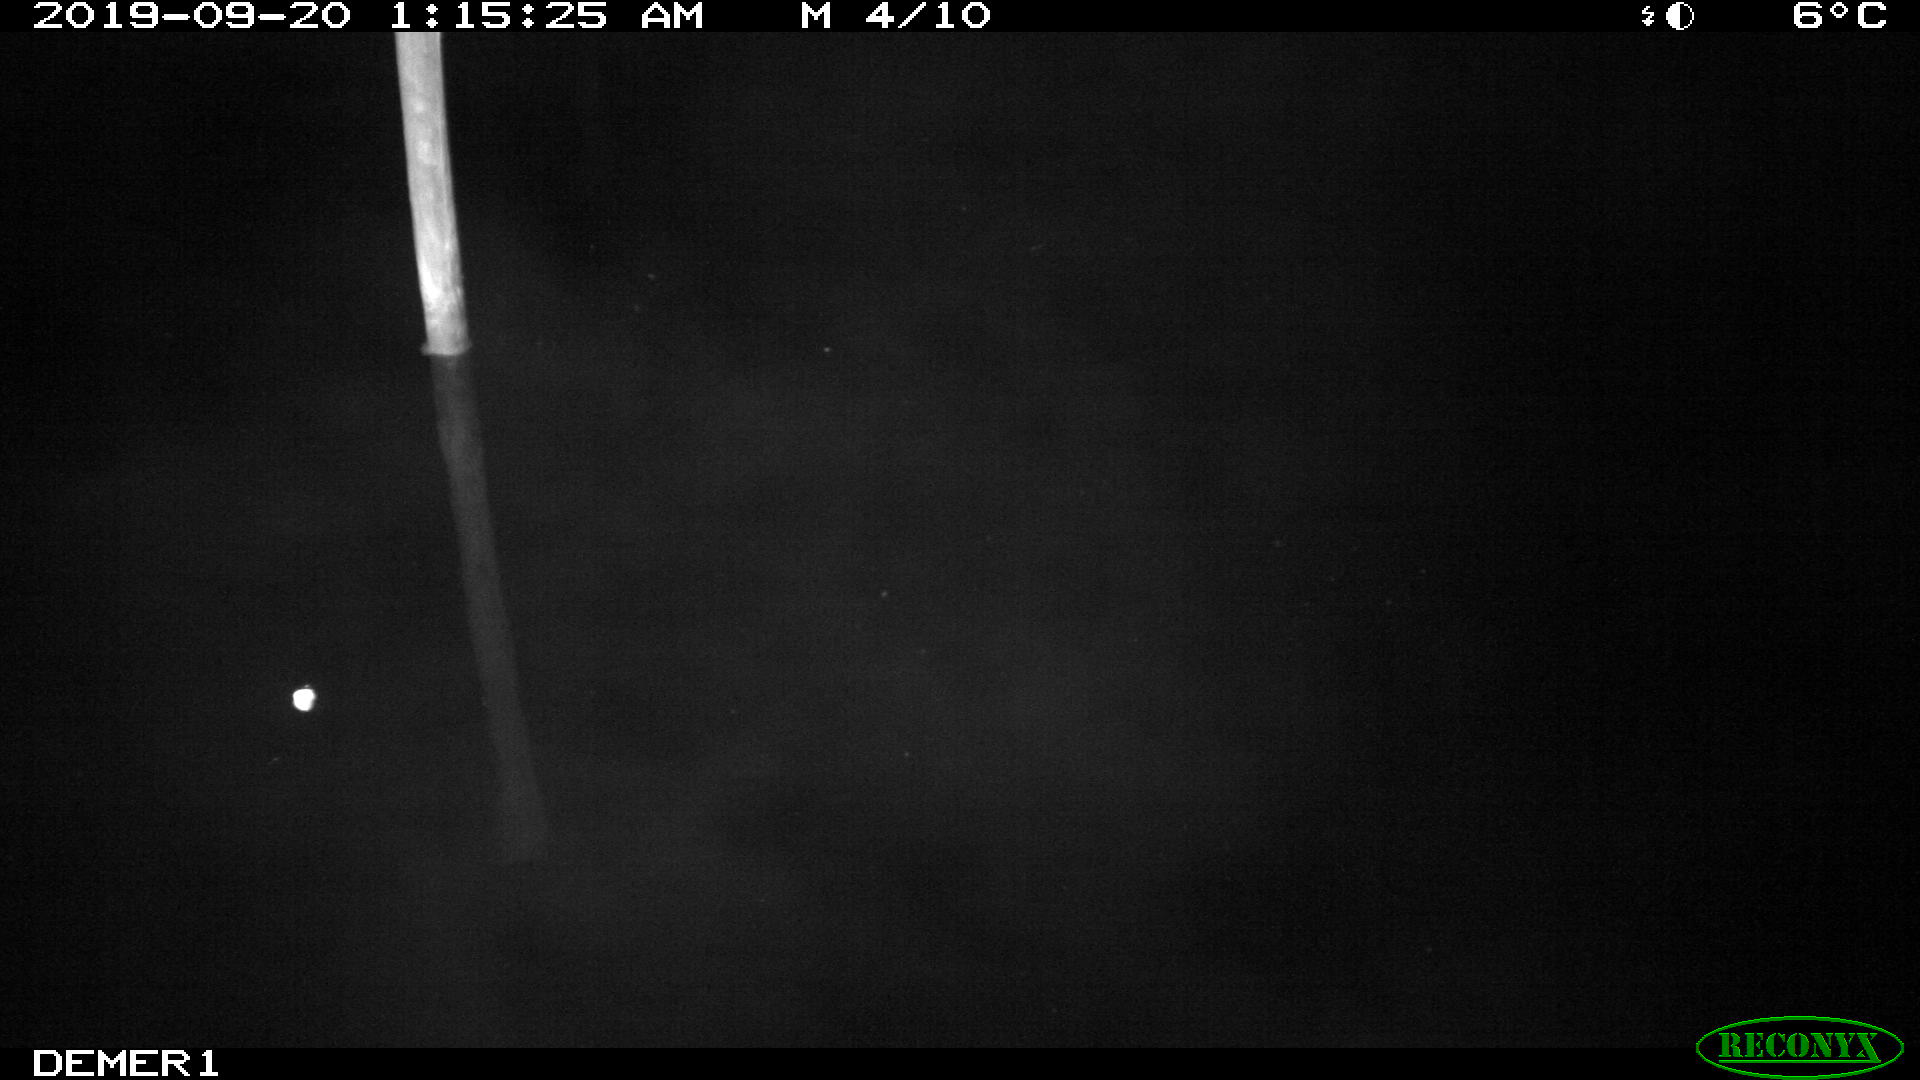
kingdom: Animalia
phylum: Chordata
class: Aves
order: Anseriformes
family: Anatidae
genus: Anas
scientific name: Anas platyrhynchos
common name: Mallard
